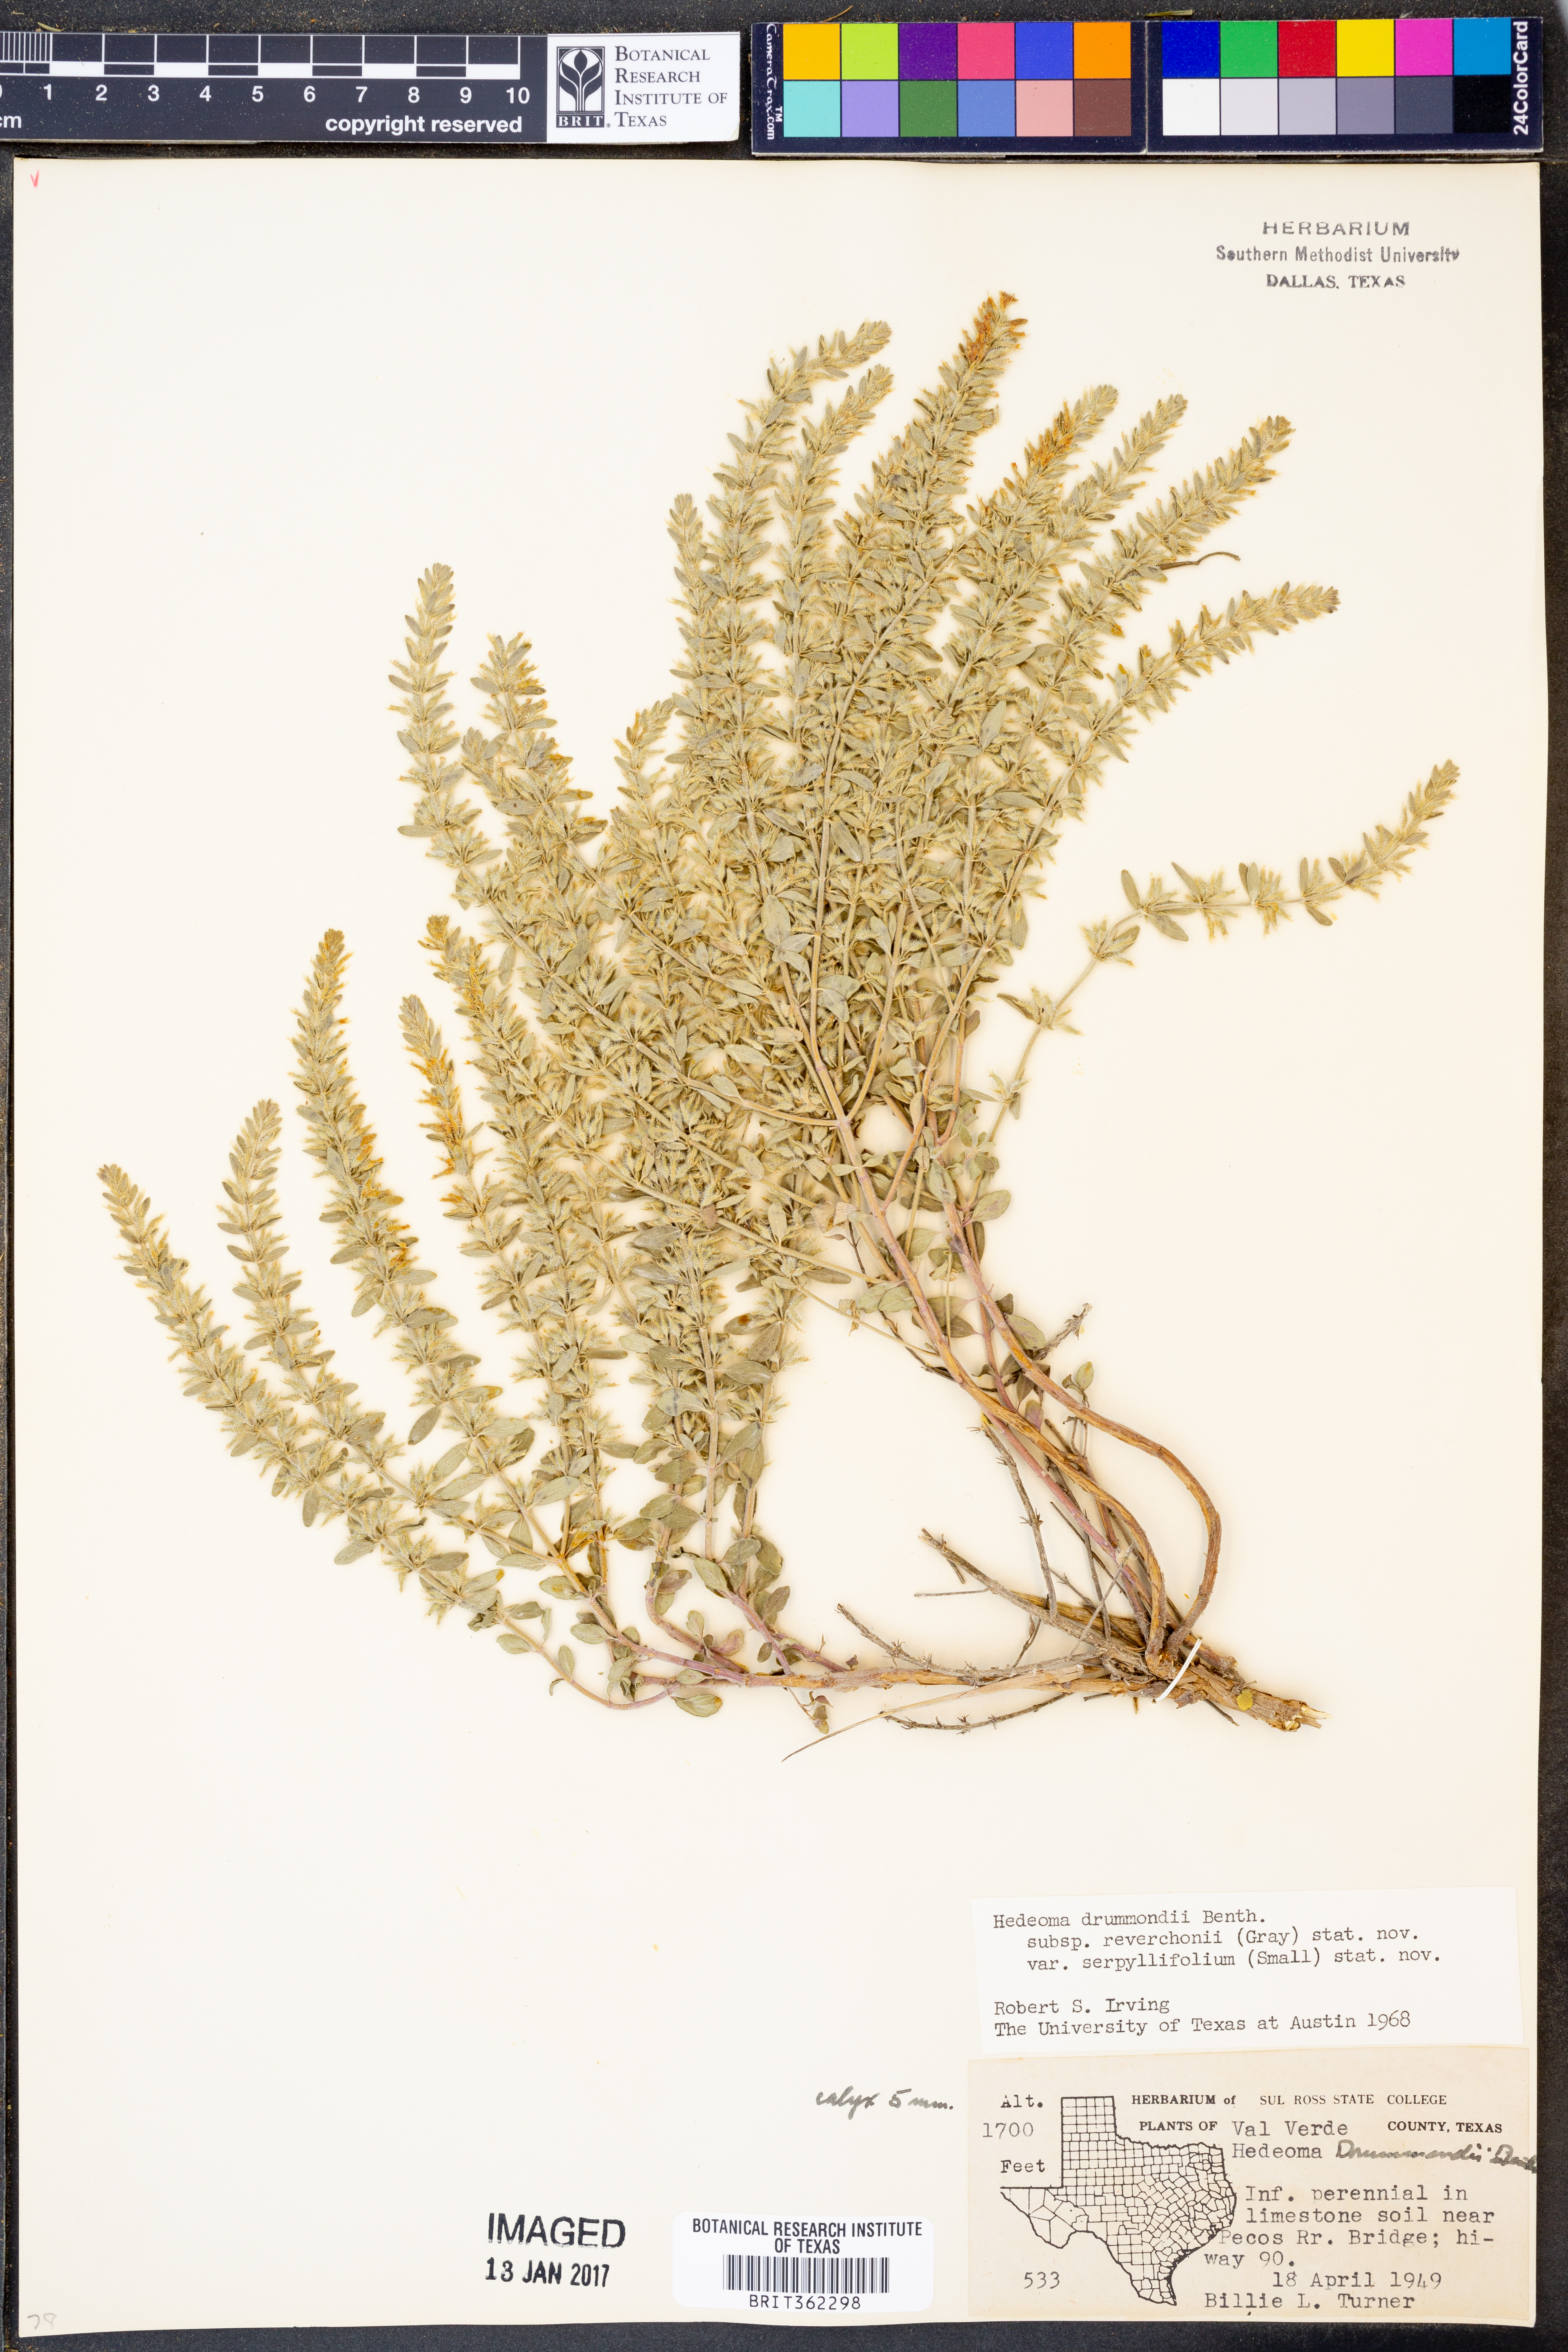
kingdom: Plantae
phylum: Tracheophyta
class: Magnoliopsida
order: Lamiales
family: Lamiaceae
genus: Hedeoma
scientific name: Hedeoma reverchonii
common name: Reverchon's false penny-royal
